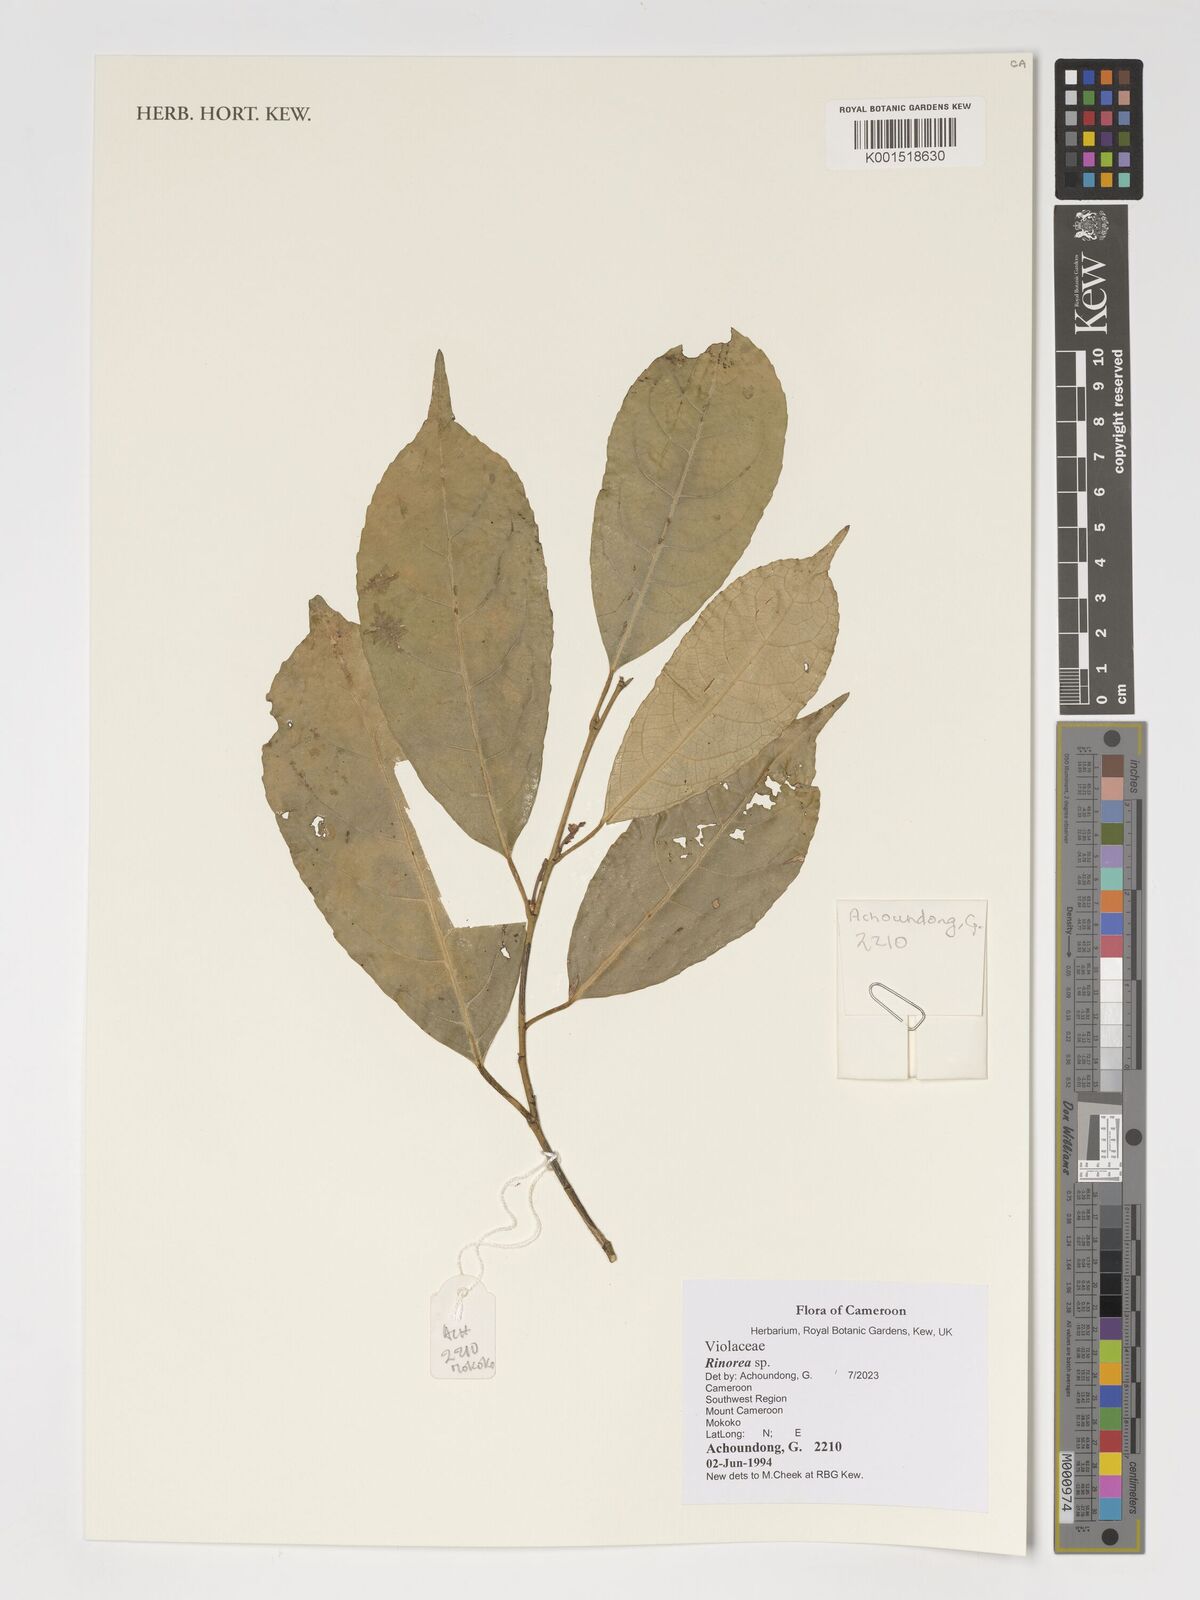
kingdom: Plantae
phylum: Tracheophyta
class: Magnoliopsida
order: Malpighiales
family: Violaceae
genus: Rinorea
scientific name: Rinorea
